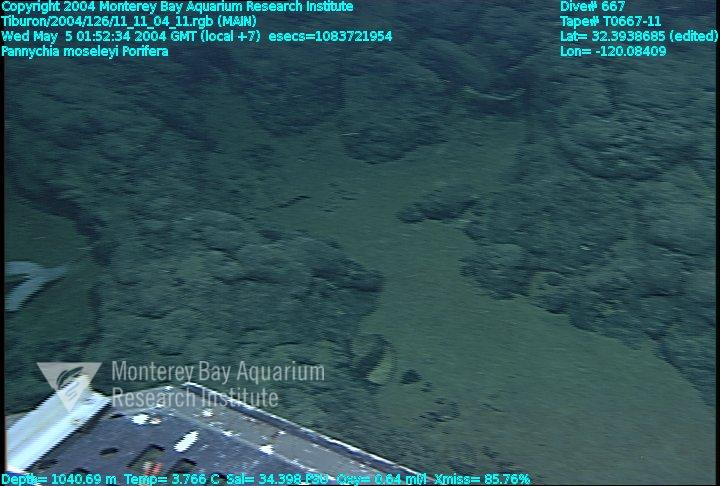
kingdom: Animalia
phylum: Porifera
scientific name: Porifera
